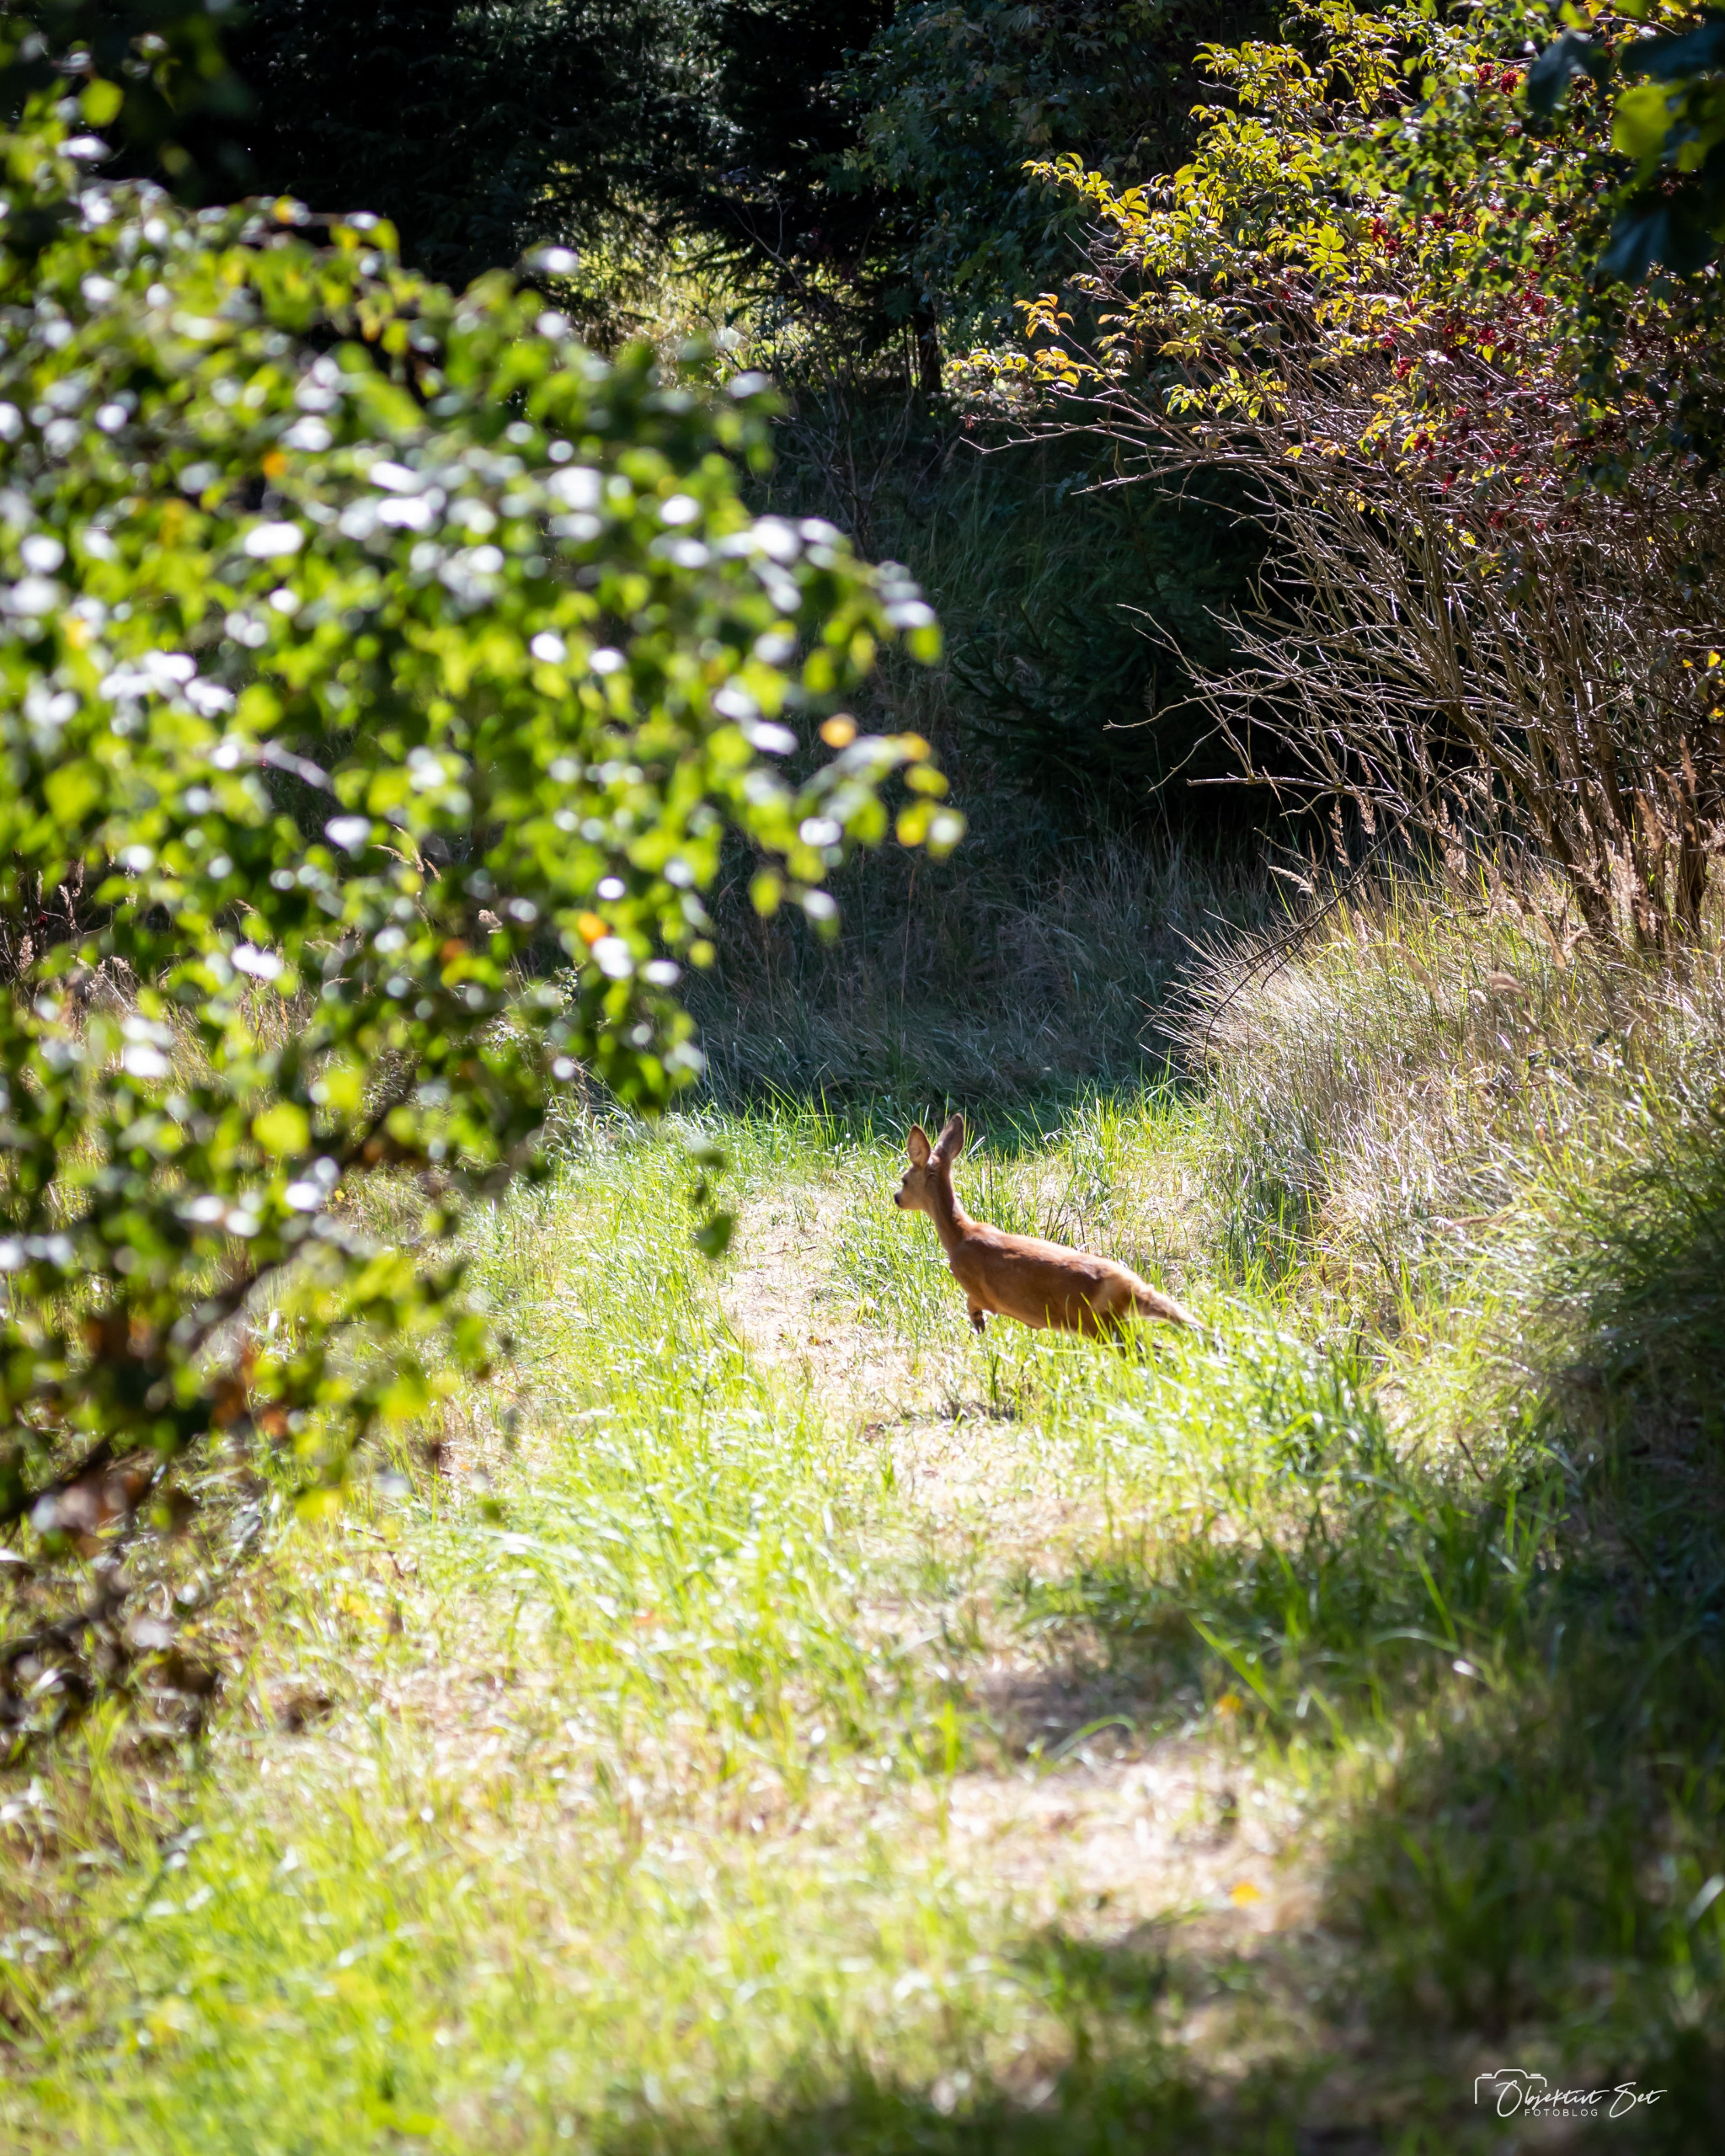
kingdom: Animalia
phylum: Chordata
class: Mammalia
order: Artiodactyla
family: Cervidae
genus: Capreolus
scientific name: Capreolus capreolus
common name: Rådyr
